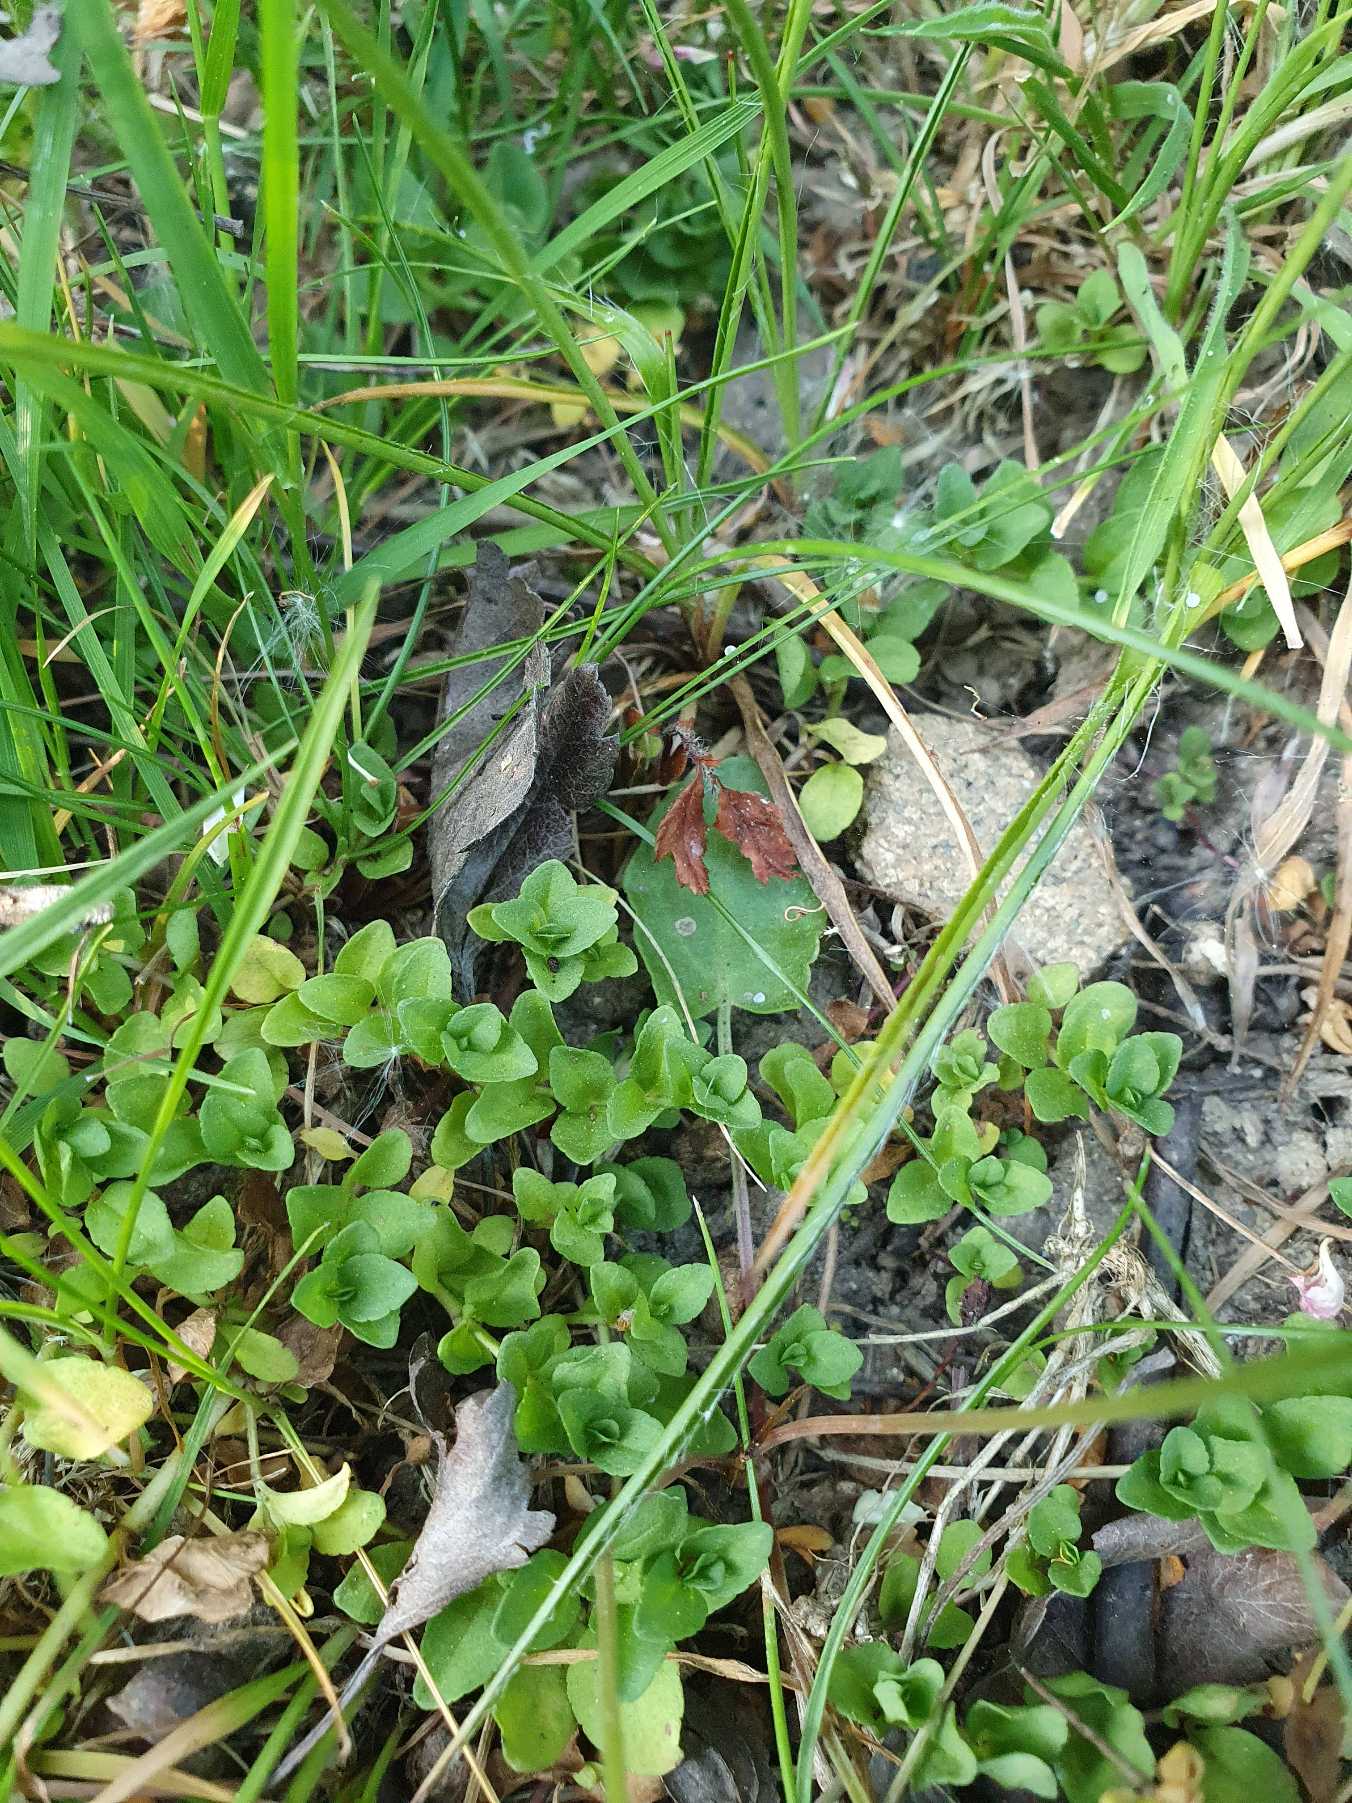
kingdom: Plantae
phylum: Tracheophyta
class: Magnoliopsida
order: Lamiales
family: Plantaginaceae
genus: Veronica
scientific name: Veronica serpyllifolia
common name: Glat ærenpris
